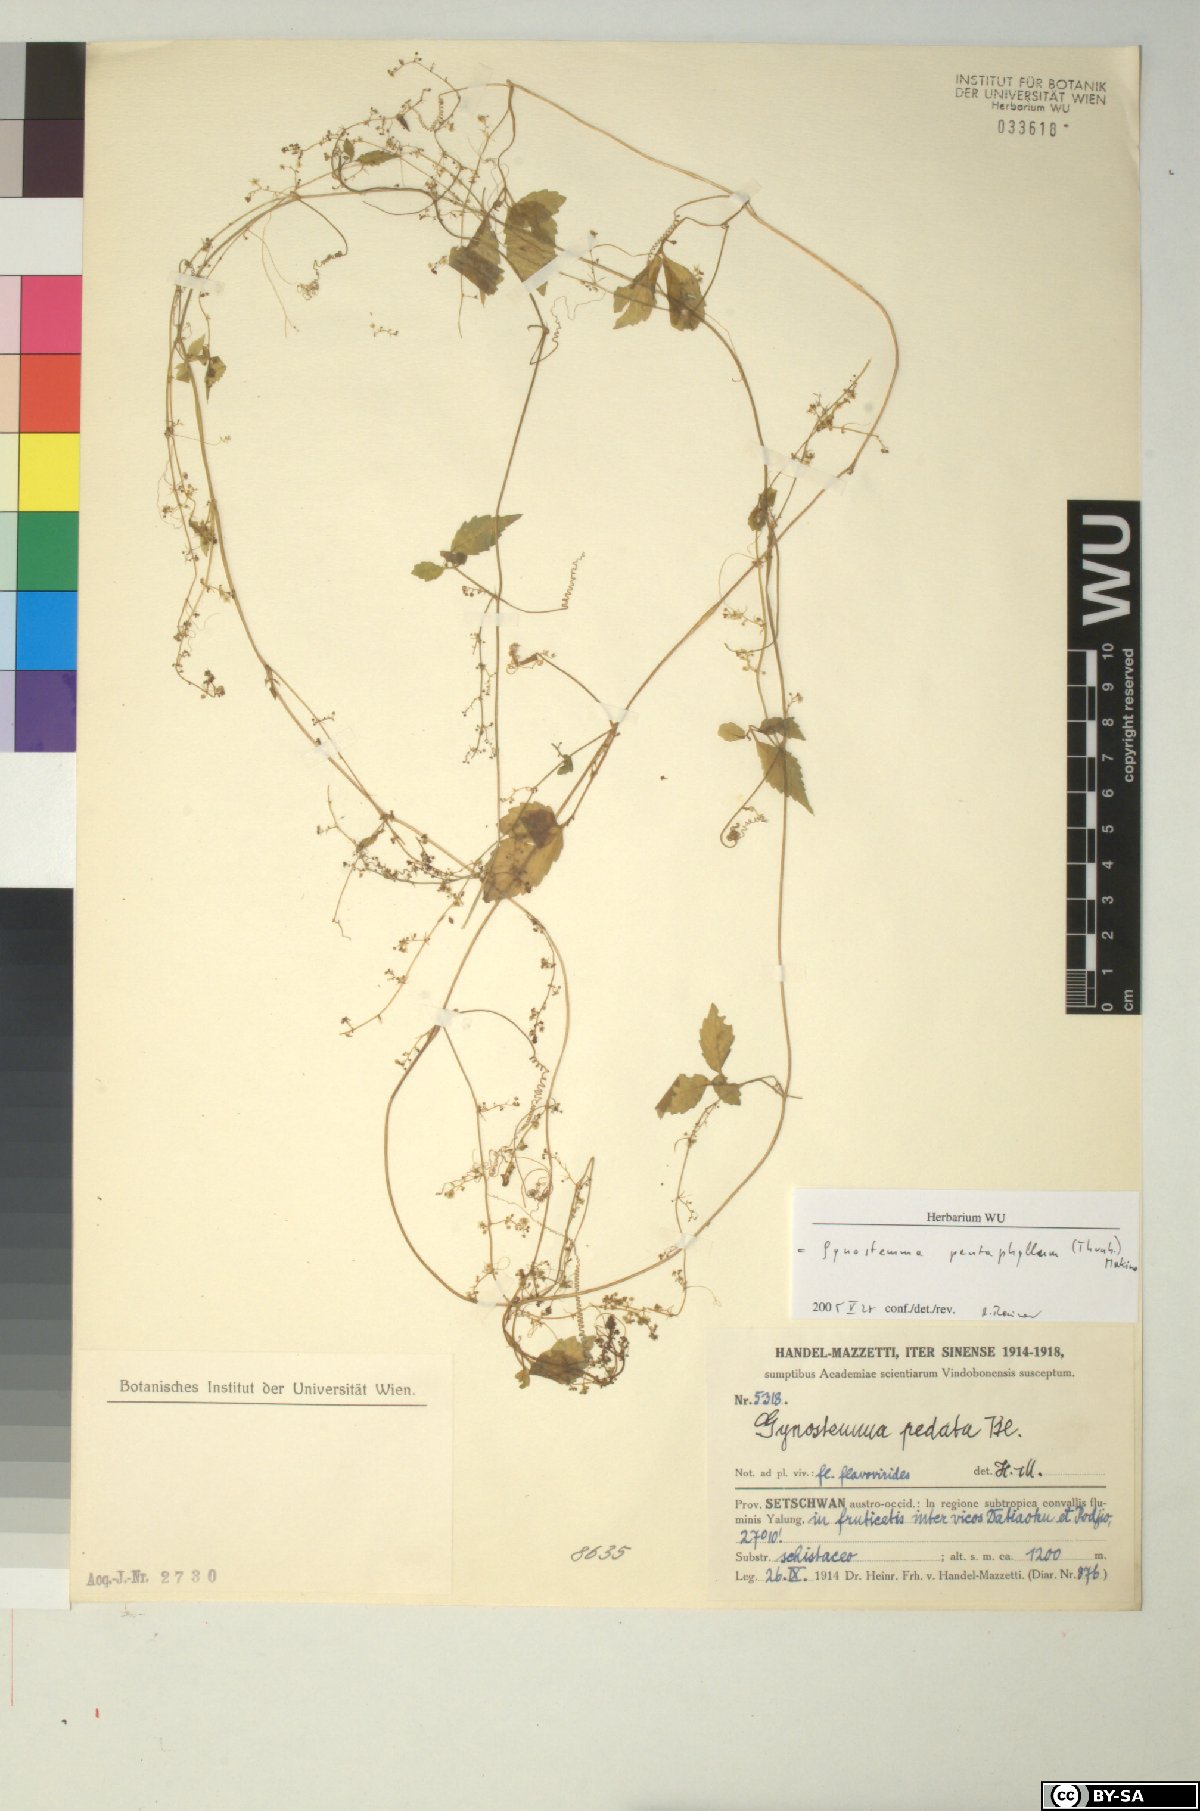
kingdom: Plantae
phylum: Tracheophyta
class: Magnoliopsida
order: Cucurbitales
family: Cucurbitaceae
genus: Gynostemma
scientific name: Gynostemma pentaphyllum
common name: Gynostemma
